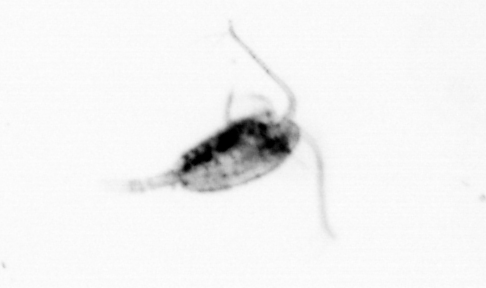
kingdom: Animalia
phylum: Arthropoda
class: Copepoda
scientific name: Copepoda
